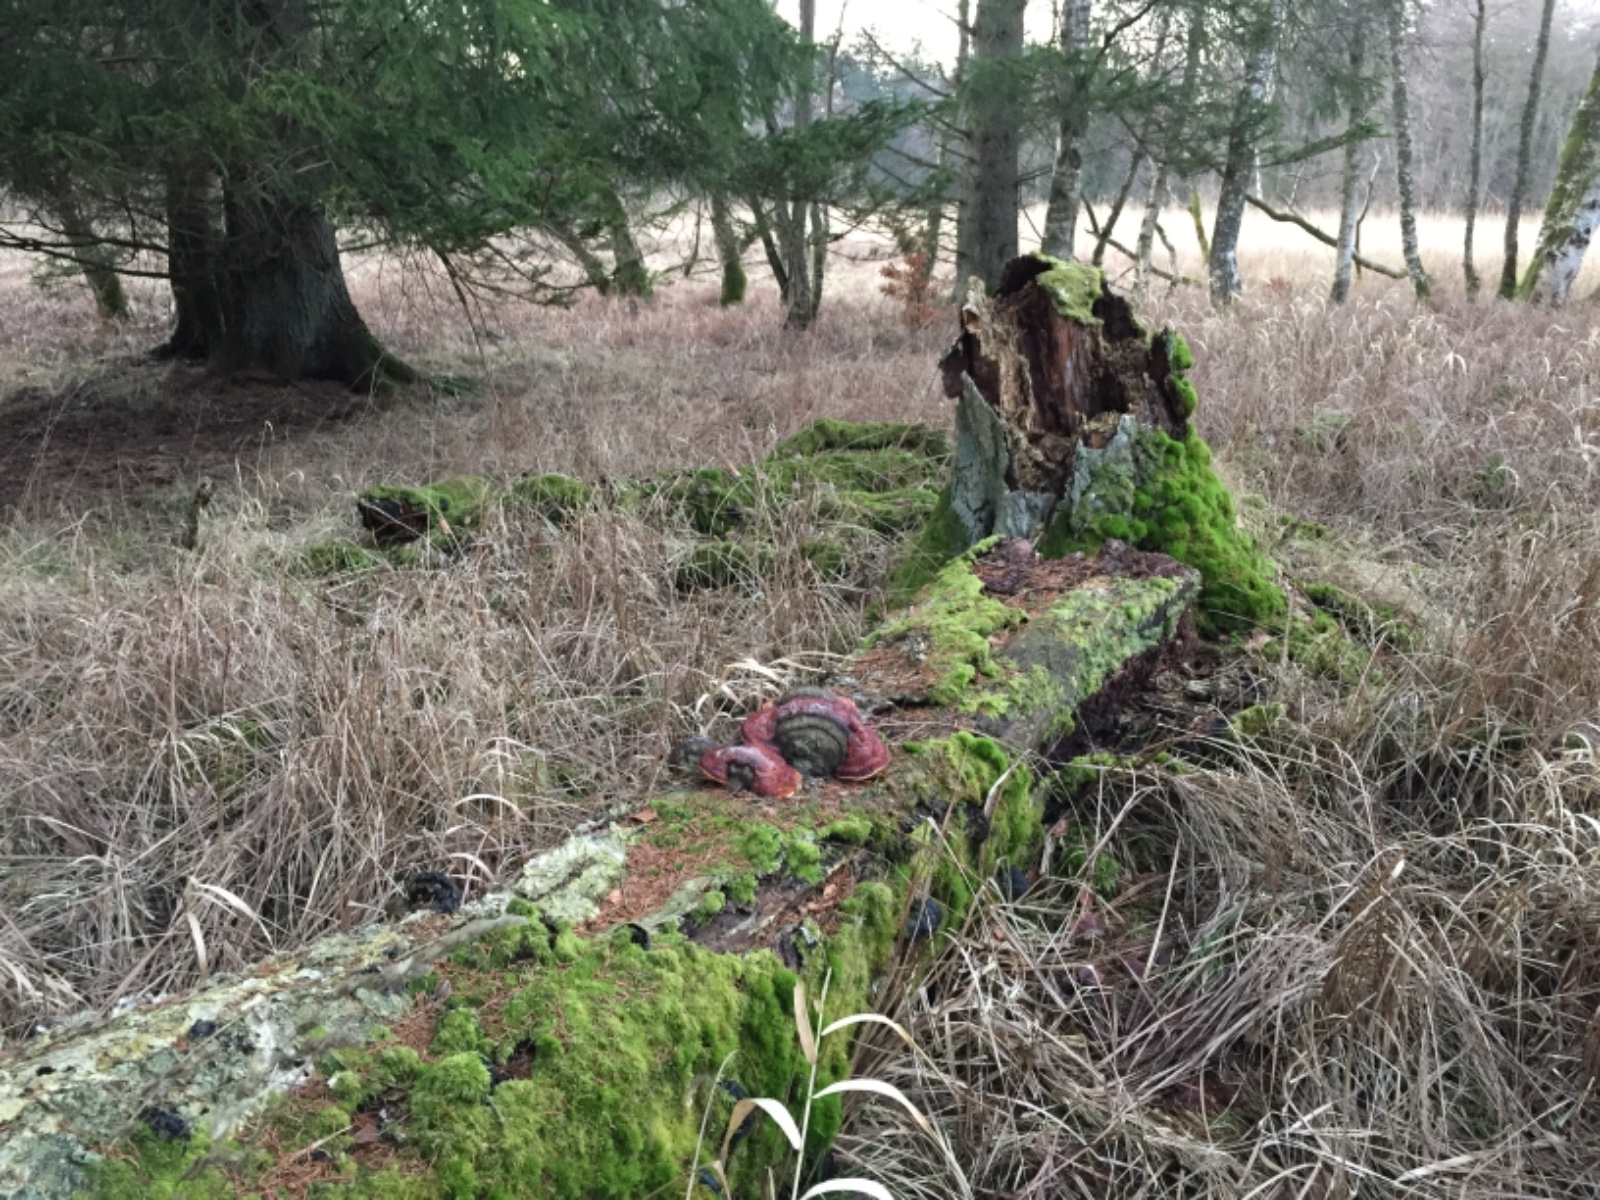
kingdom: Fungi
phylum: Basidiomycota
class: Agaricomycetes
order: Polyporales
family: Fomitopsidaceae
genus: Fomitopsis
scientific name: Fomitopsis pinicola
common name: randbæltet hovporesvamp
